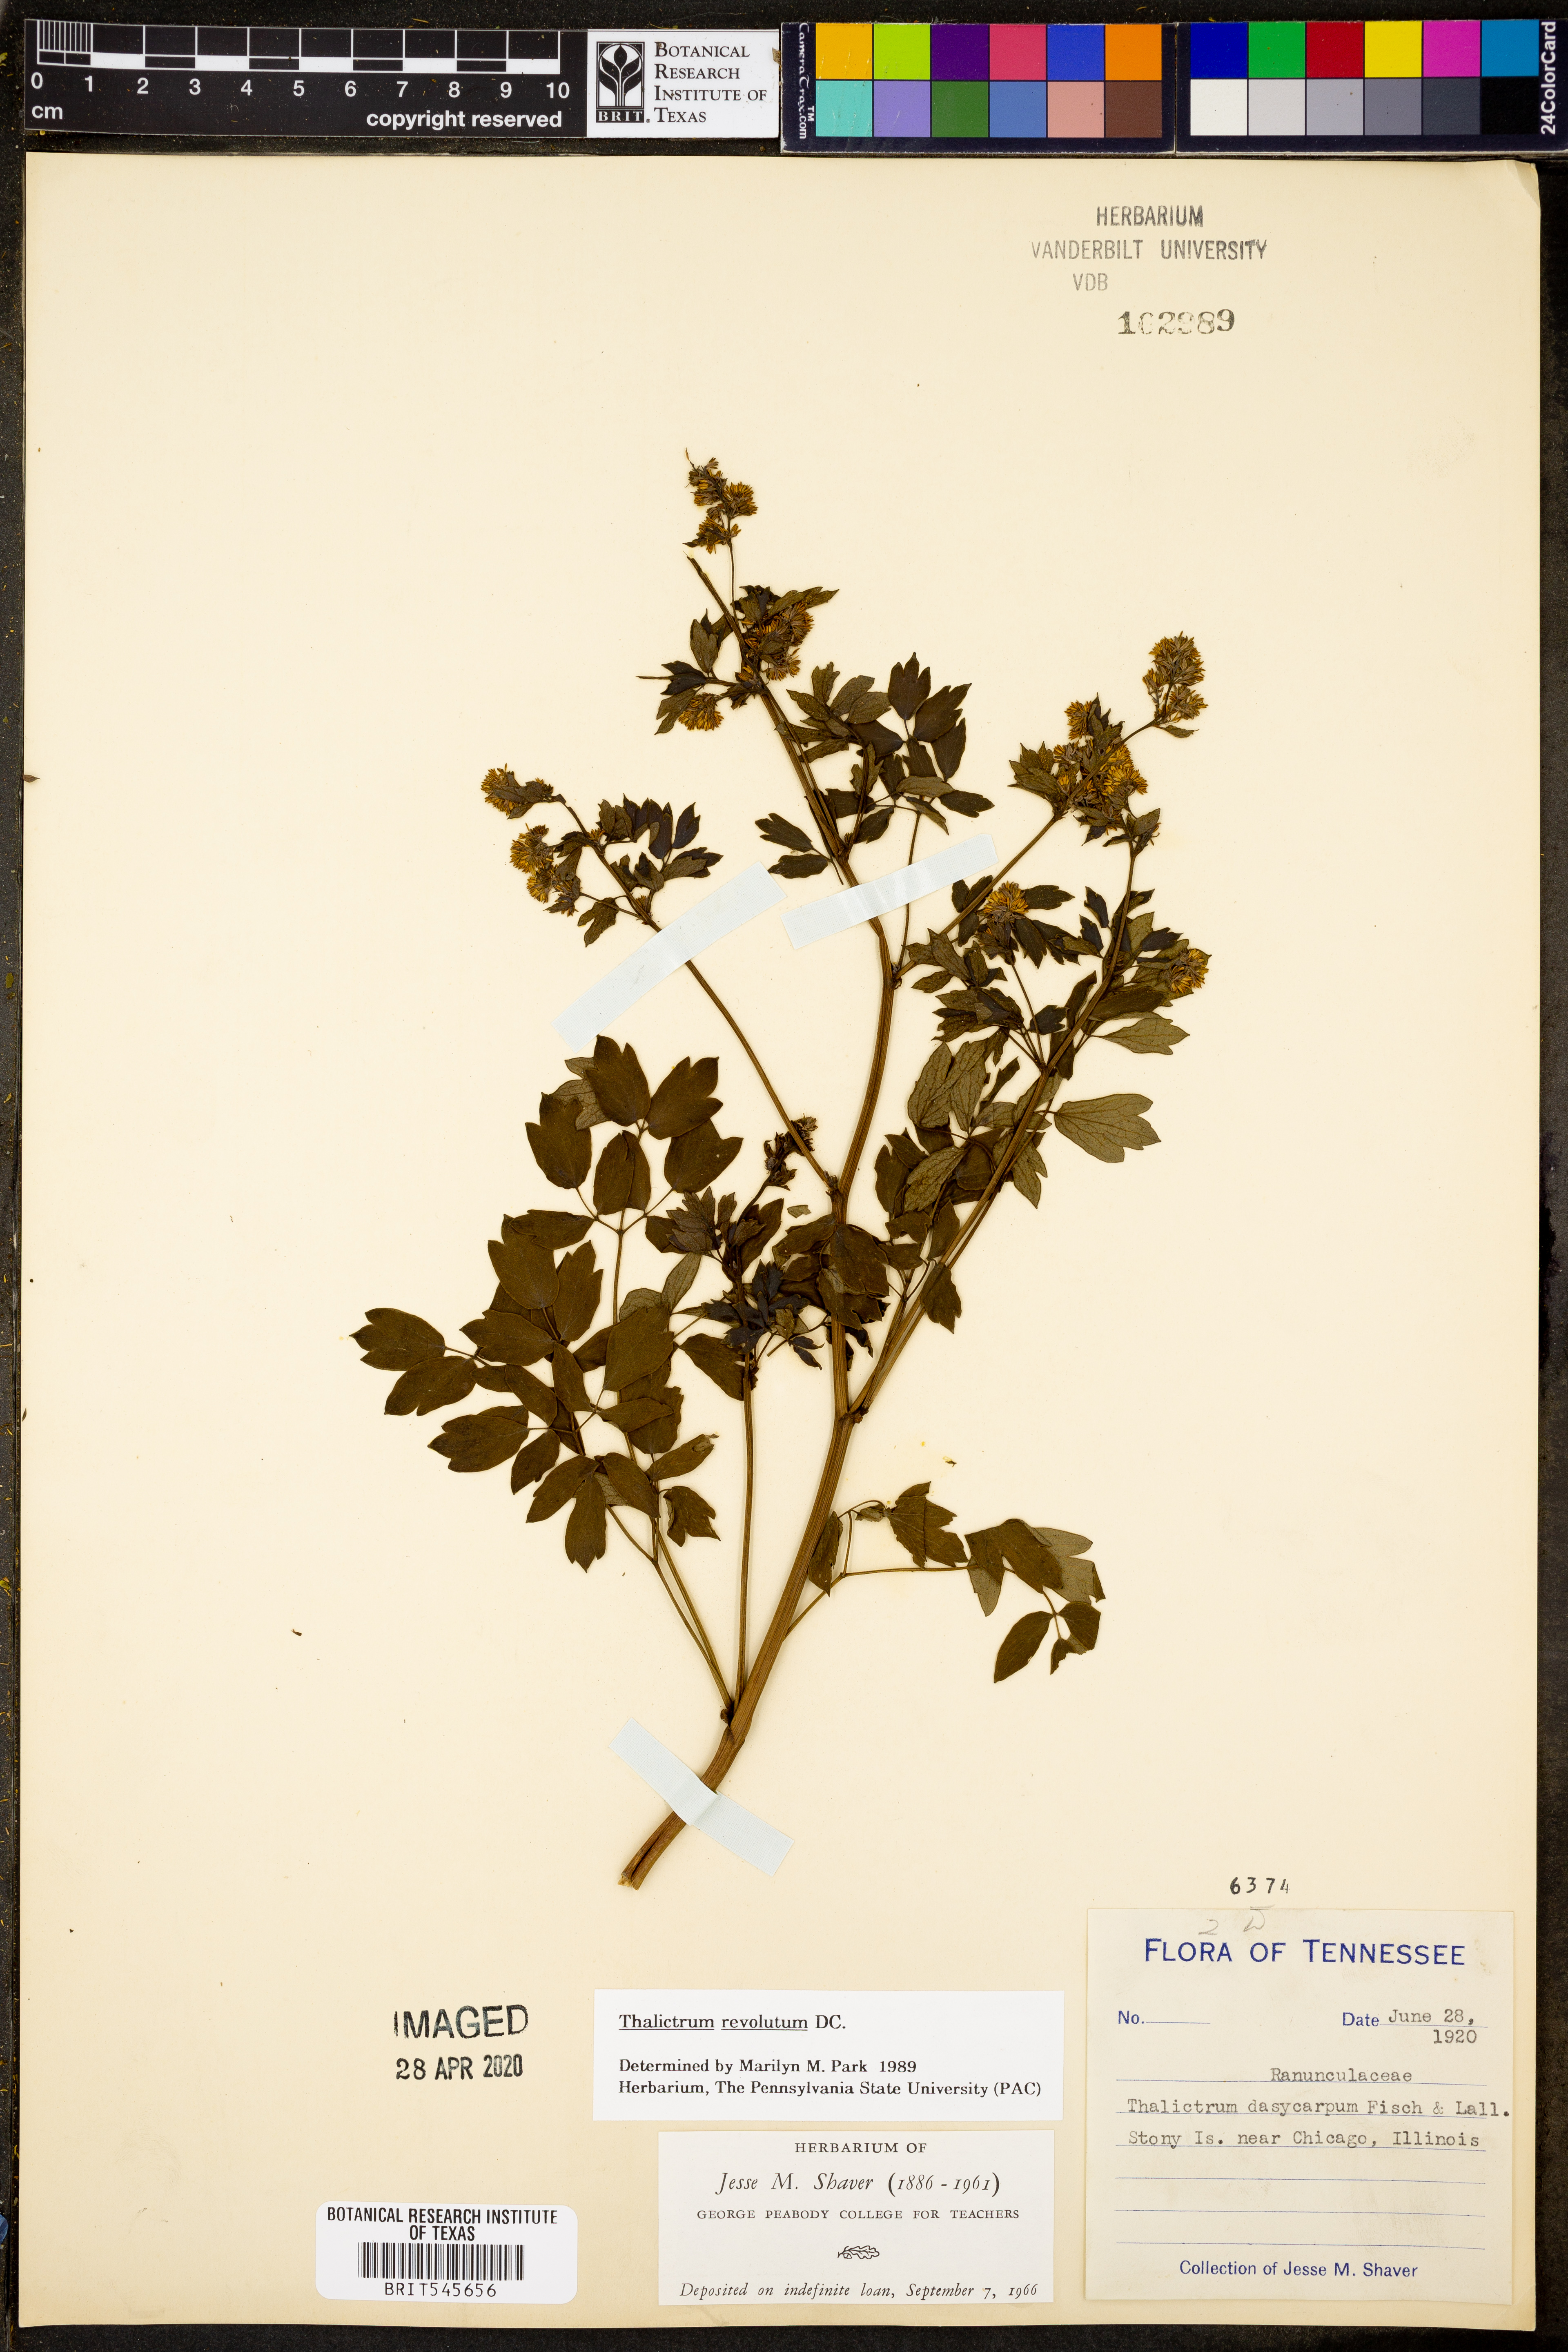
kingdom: Plantae
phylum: Tracheophyta
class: Magnoliopsida
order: Ranunculales
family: Ranunculaceae
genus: Thalictrum
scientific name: Thalictrum revolutum
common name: Waxy meadow-rue
